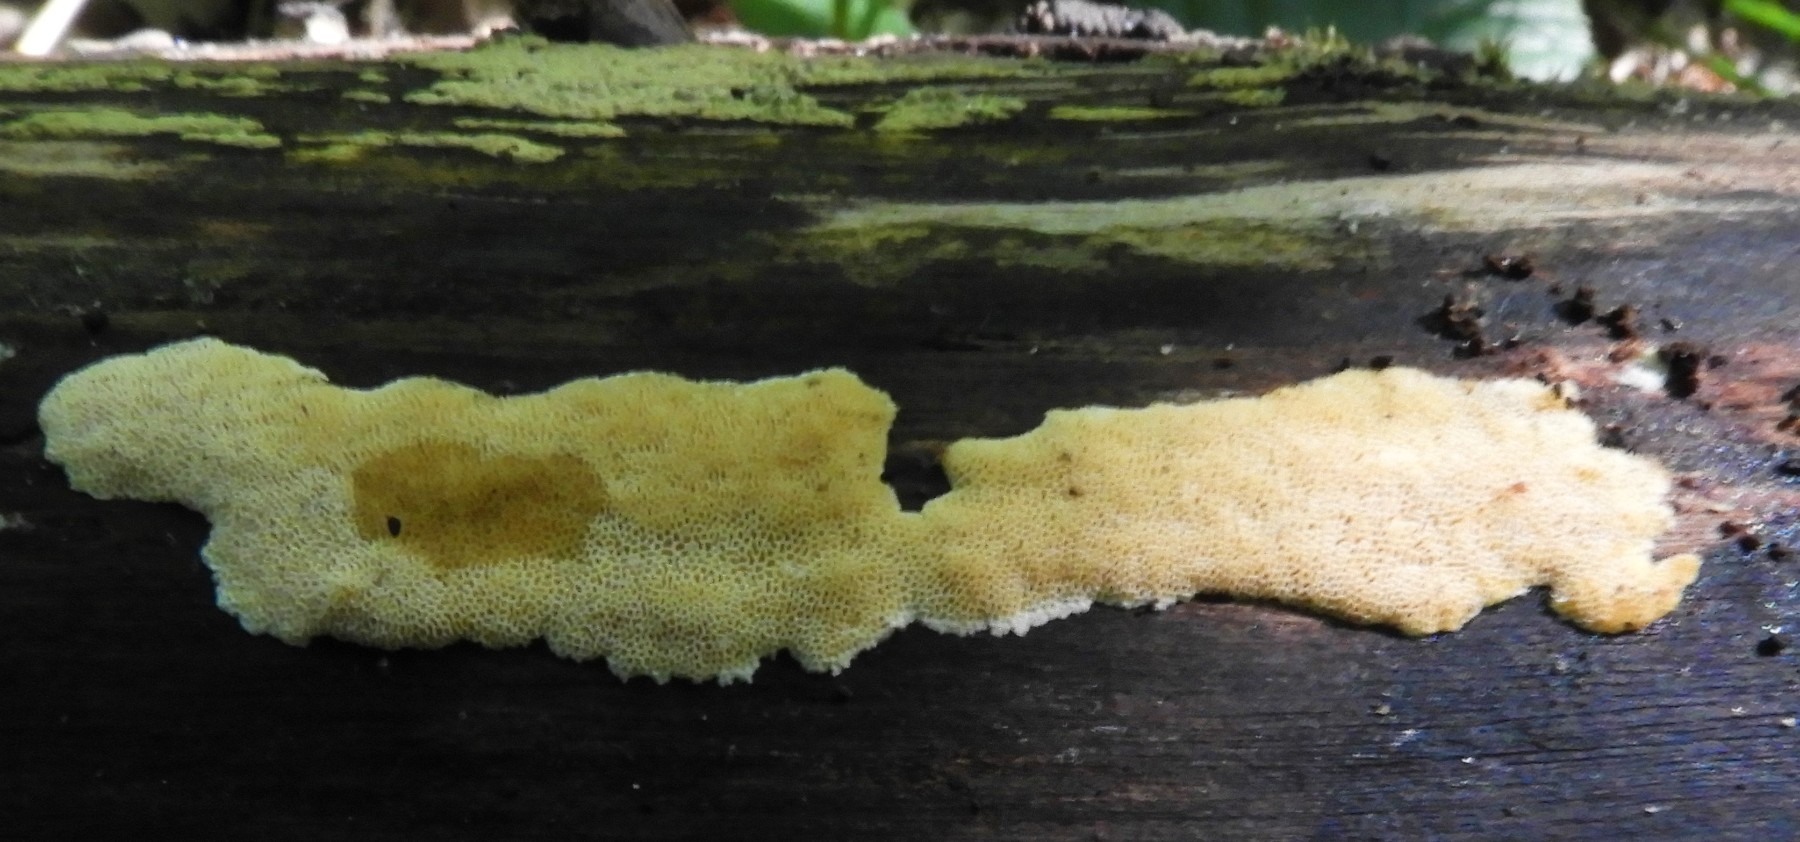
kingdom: Fungi
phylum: Basidiomycota
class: Agaricomycetes
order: Polyporales
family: Steccherinaceae
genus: Junghuhnia
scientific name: Junghuhnia nitida
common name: almindelig skønporesvamp
